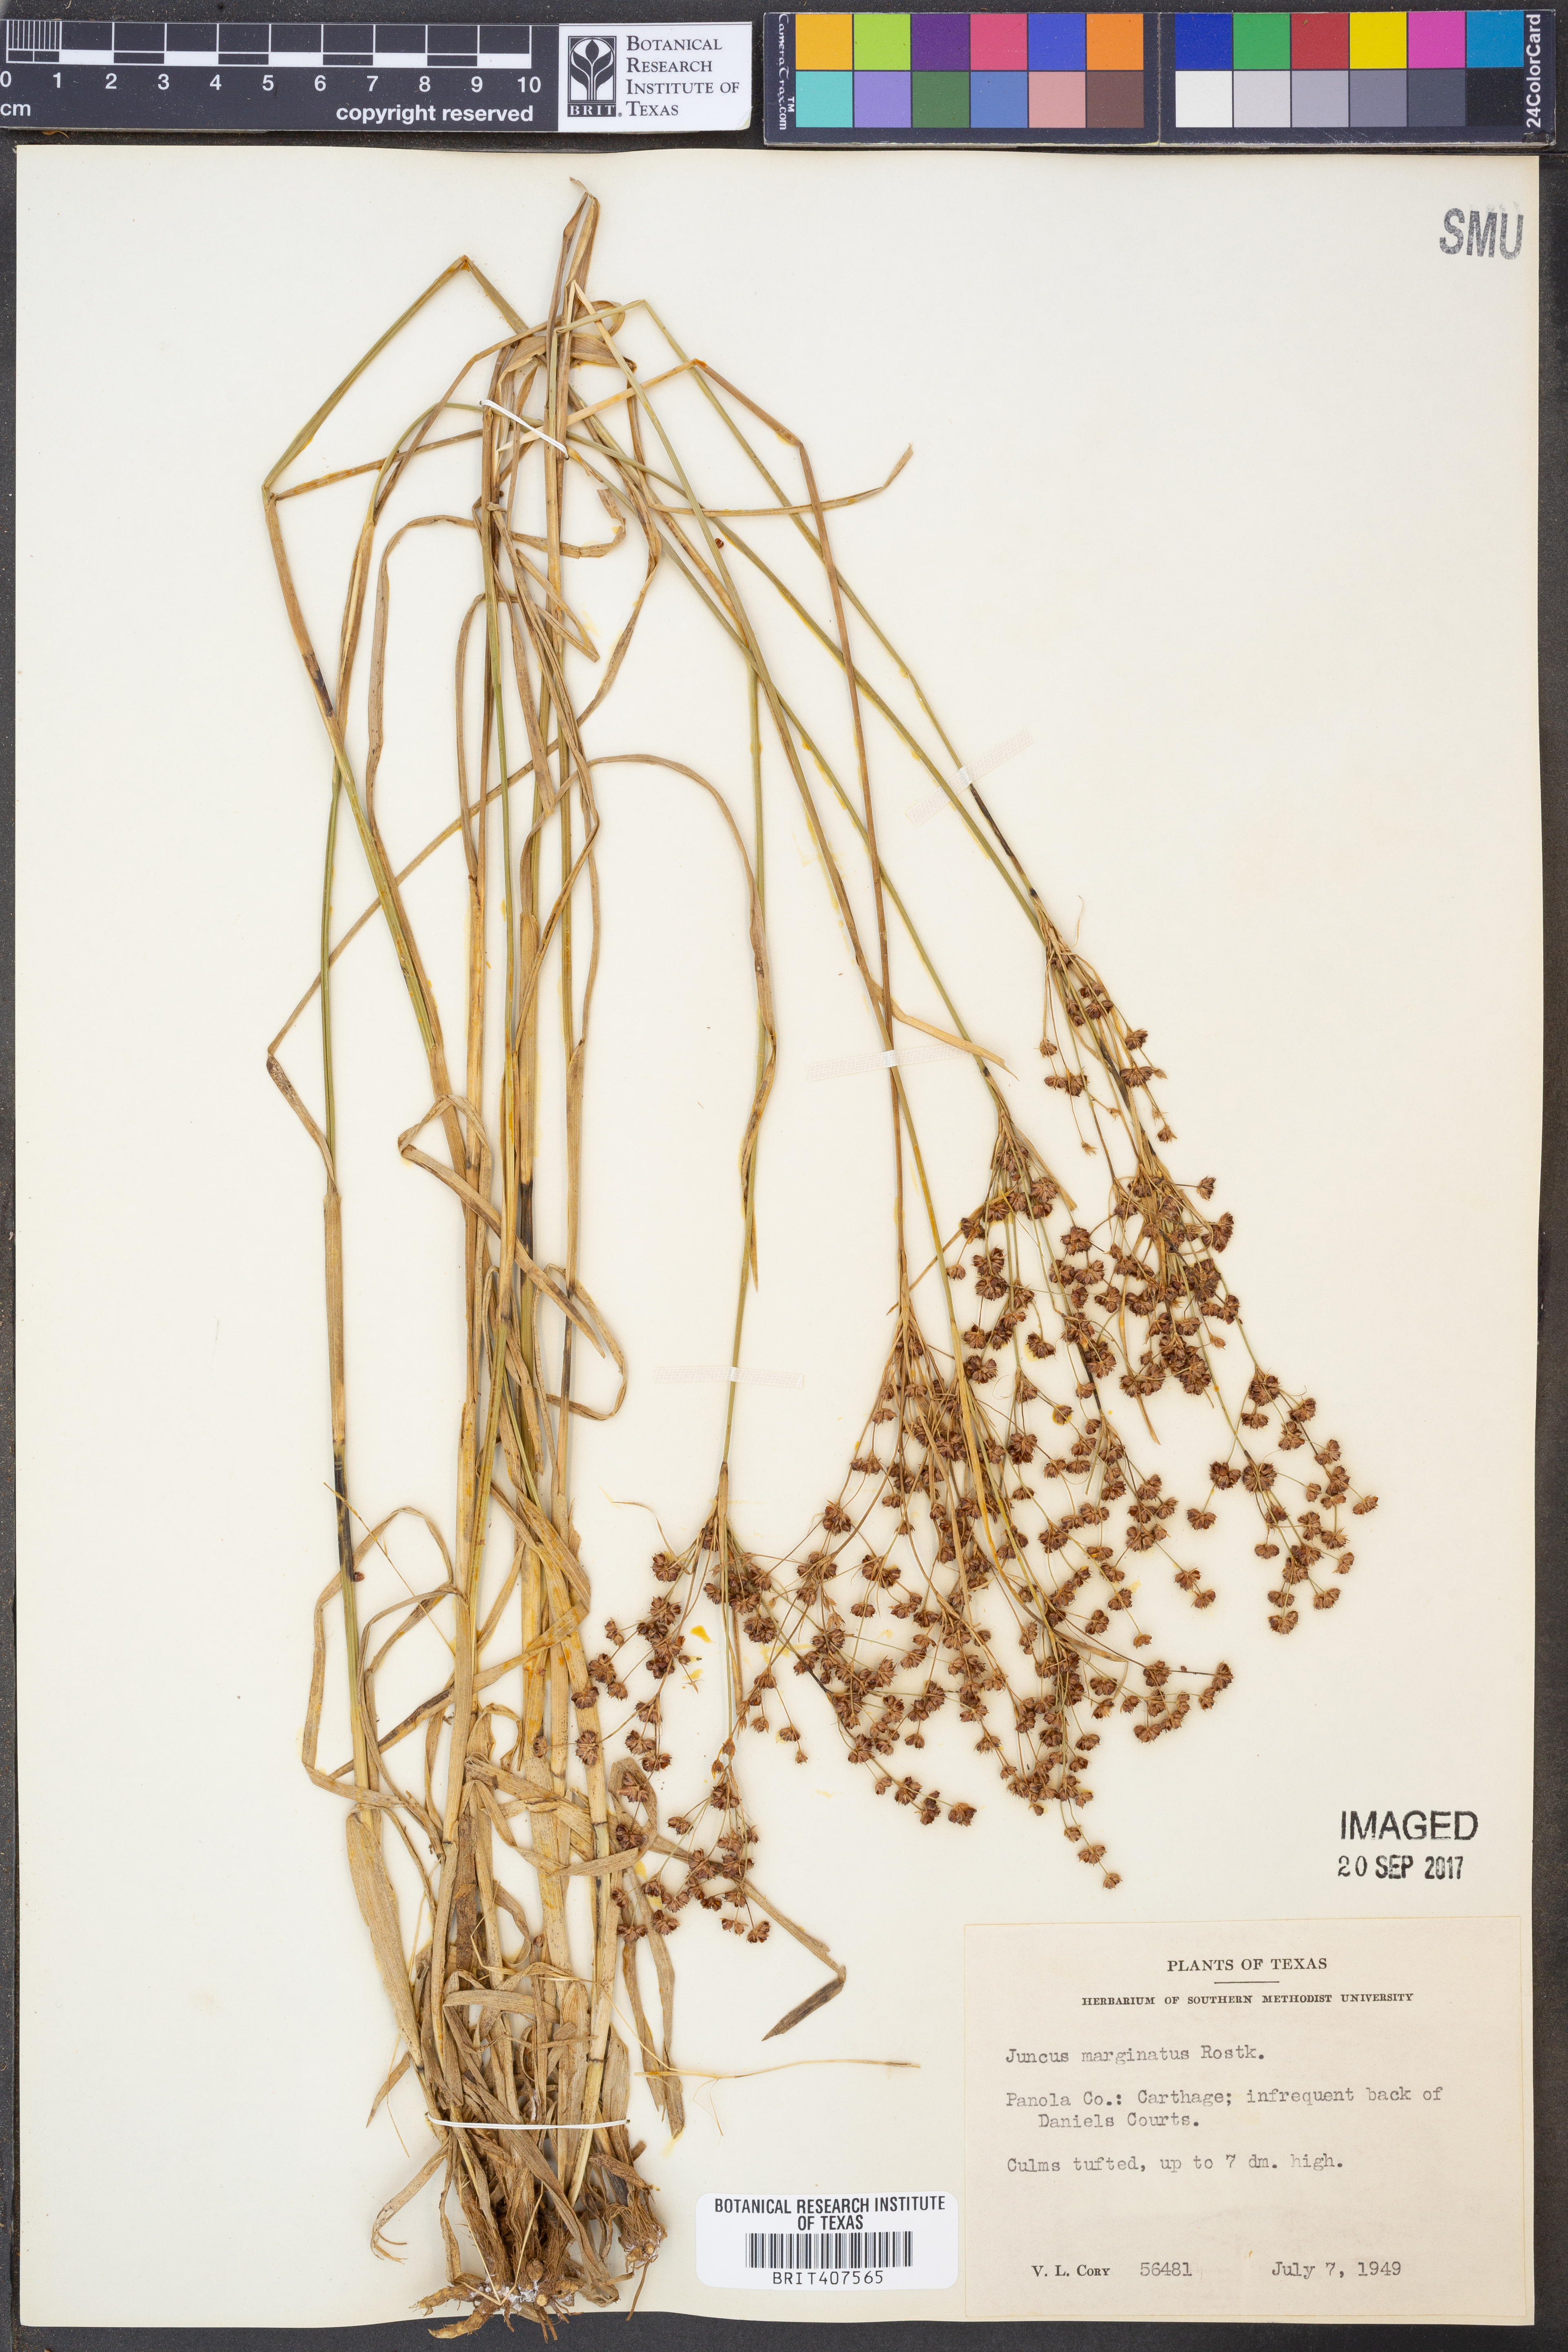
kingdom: Plantae
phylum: Tracheophyta
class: Liliopsida
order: Poales
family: Juncaceae
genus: Juncus
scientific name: Juncus marginatus
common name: Grass-leaf rush
